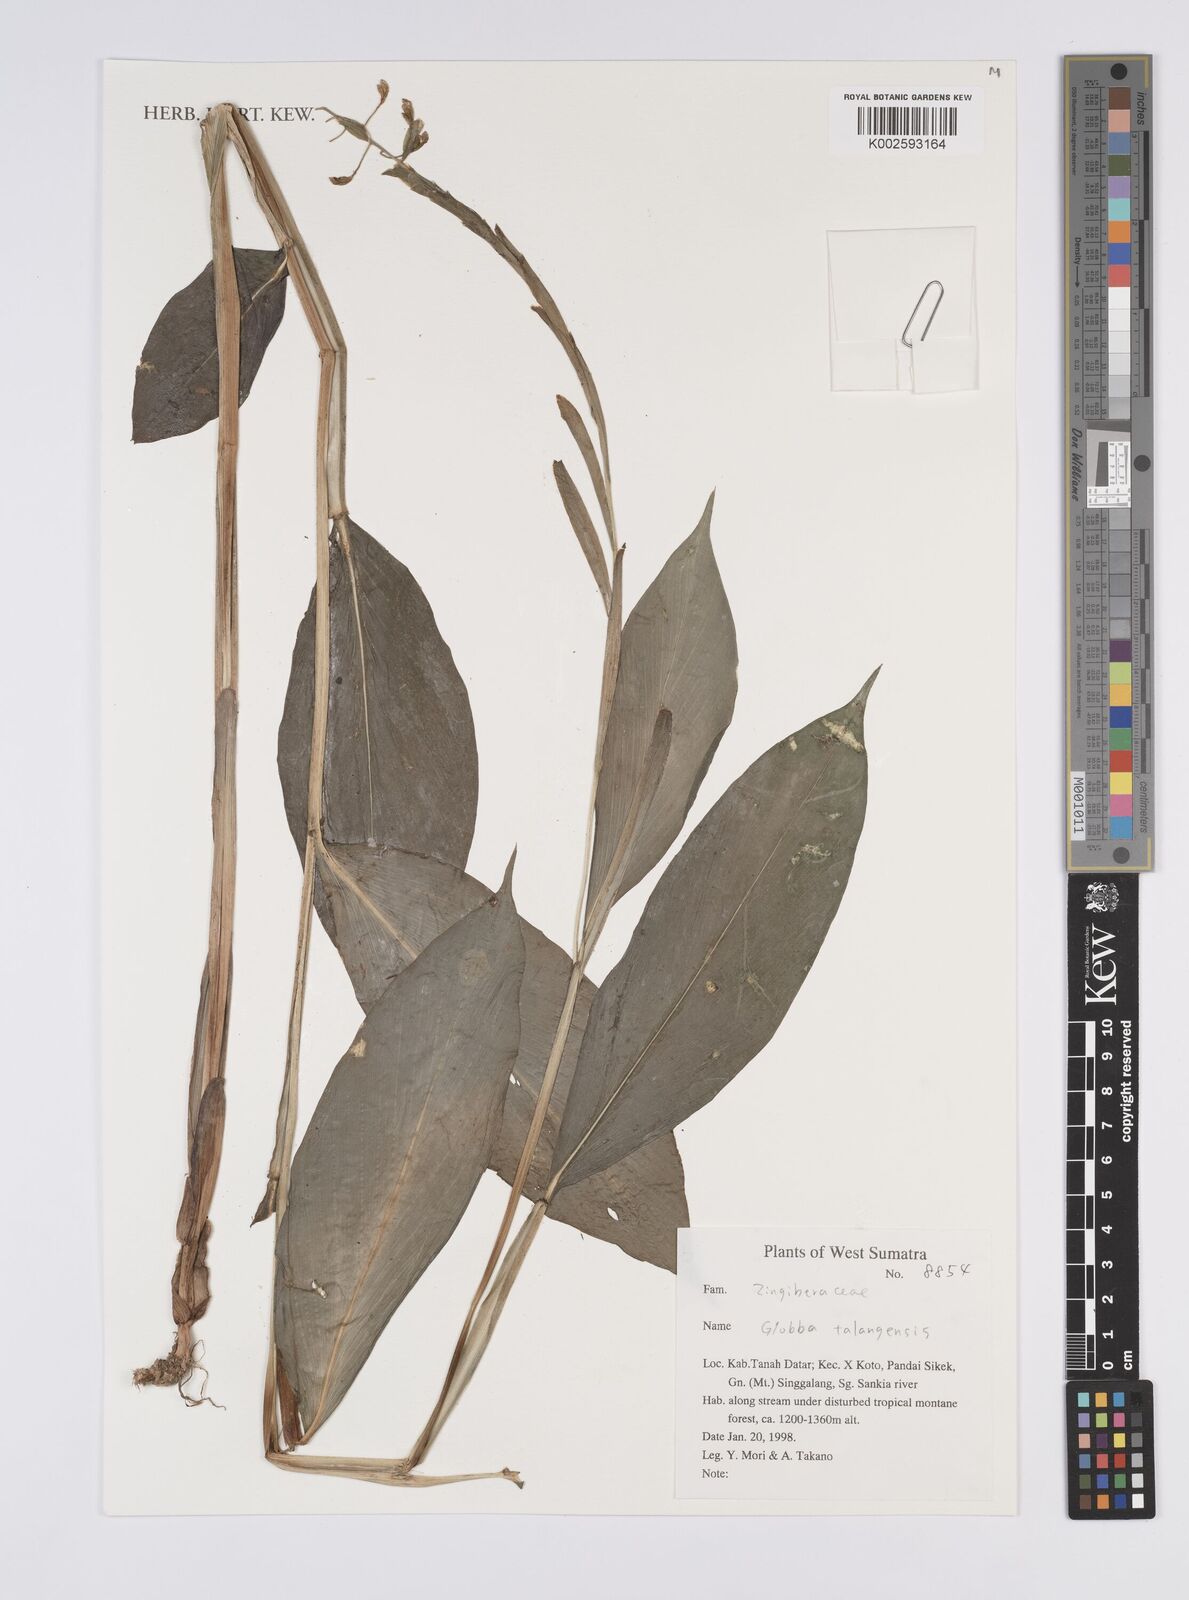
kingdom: Plantae
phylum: Tracheophyta
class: Liliopsida
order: Zingiberales
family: Zingiberaceae
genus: Globba
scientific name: Globba
